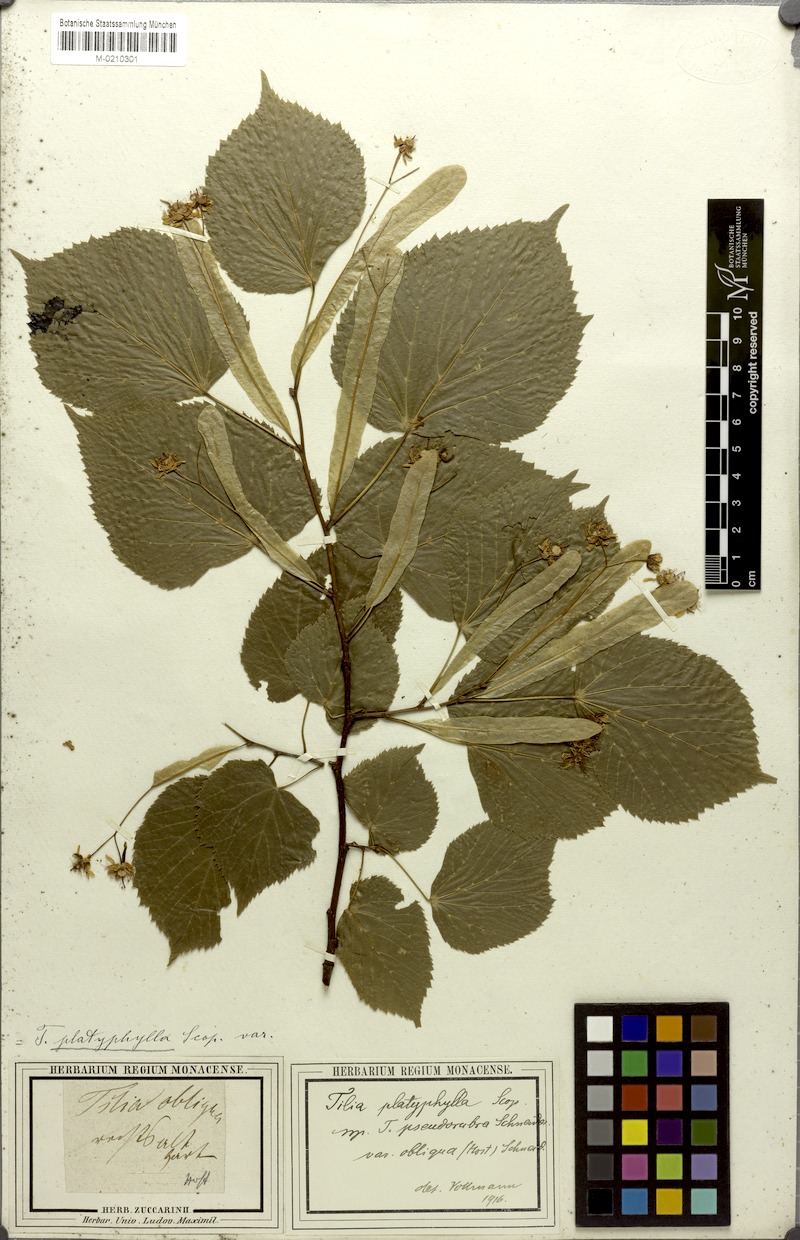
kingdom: Plantae
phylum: Tracheophyta
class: Magnoliopsida
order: Malvales
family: Malvaceae
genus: Tilia
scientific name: Tilia platyphyllos
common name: Large-leaved lime
